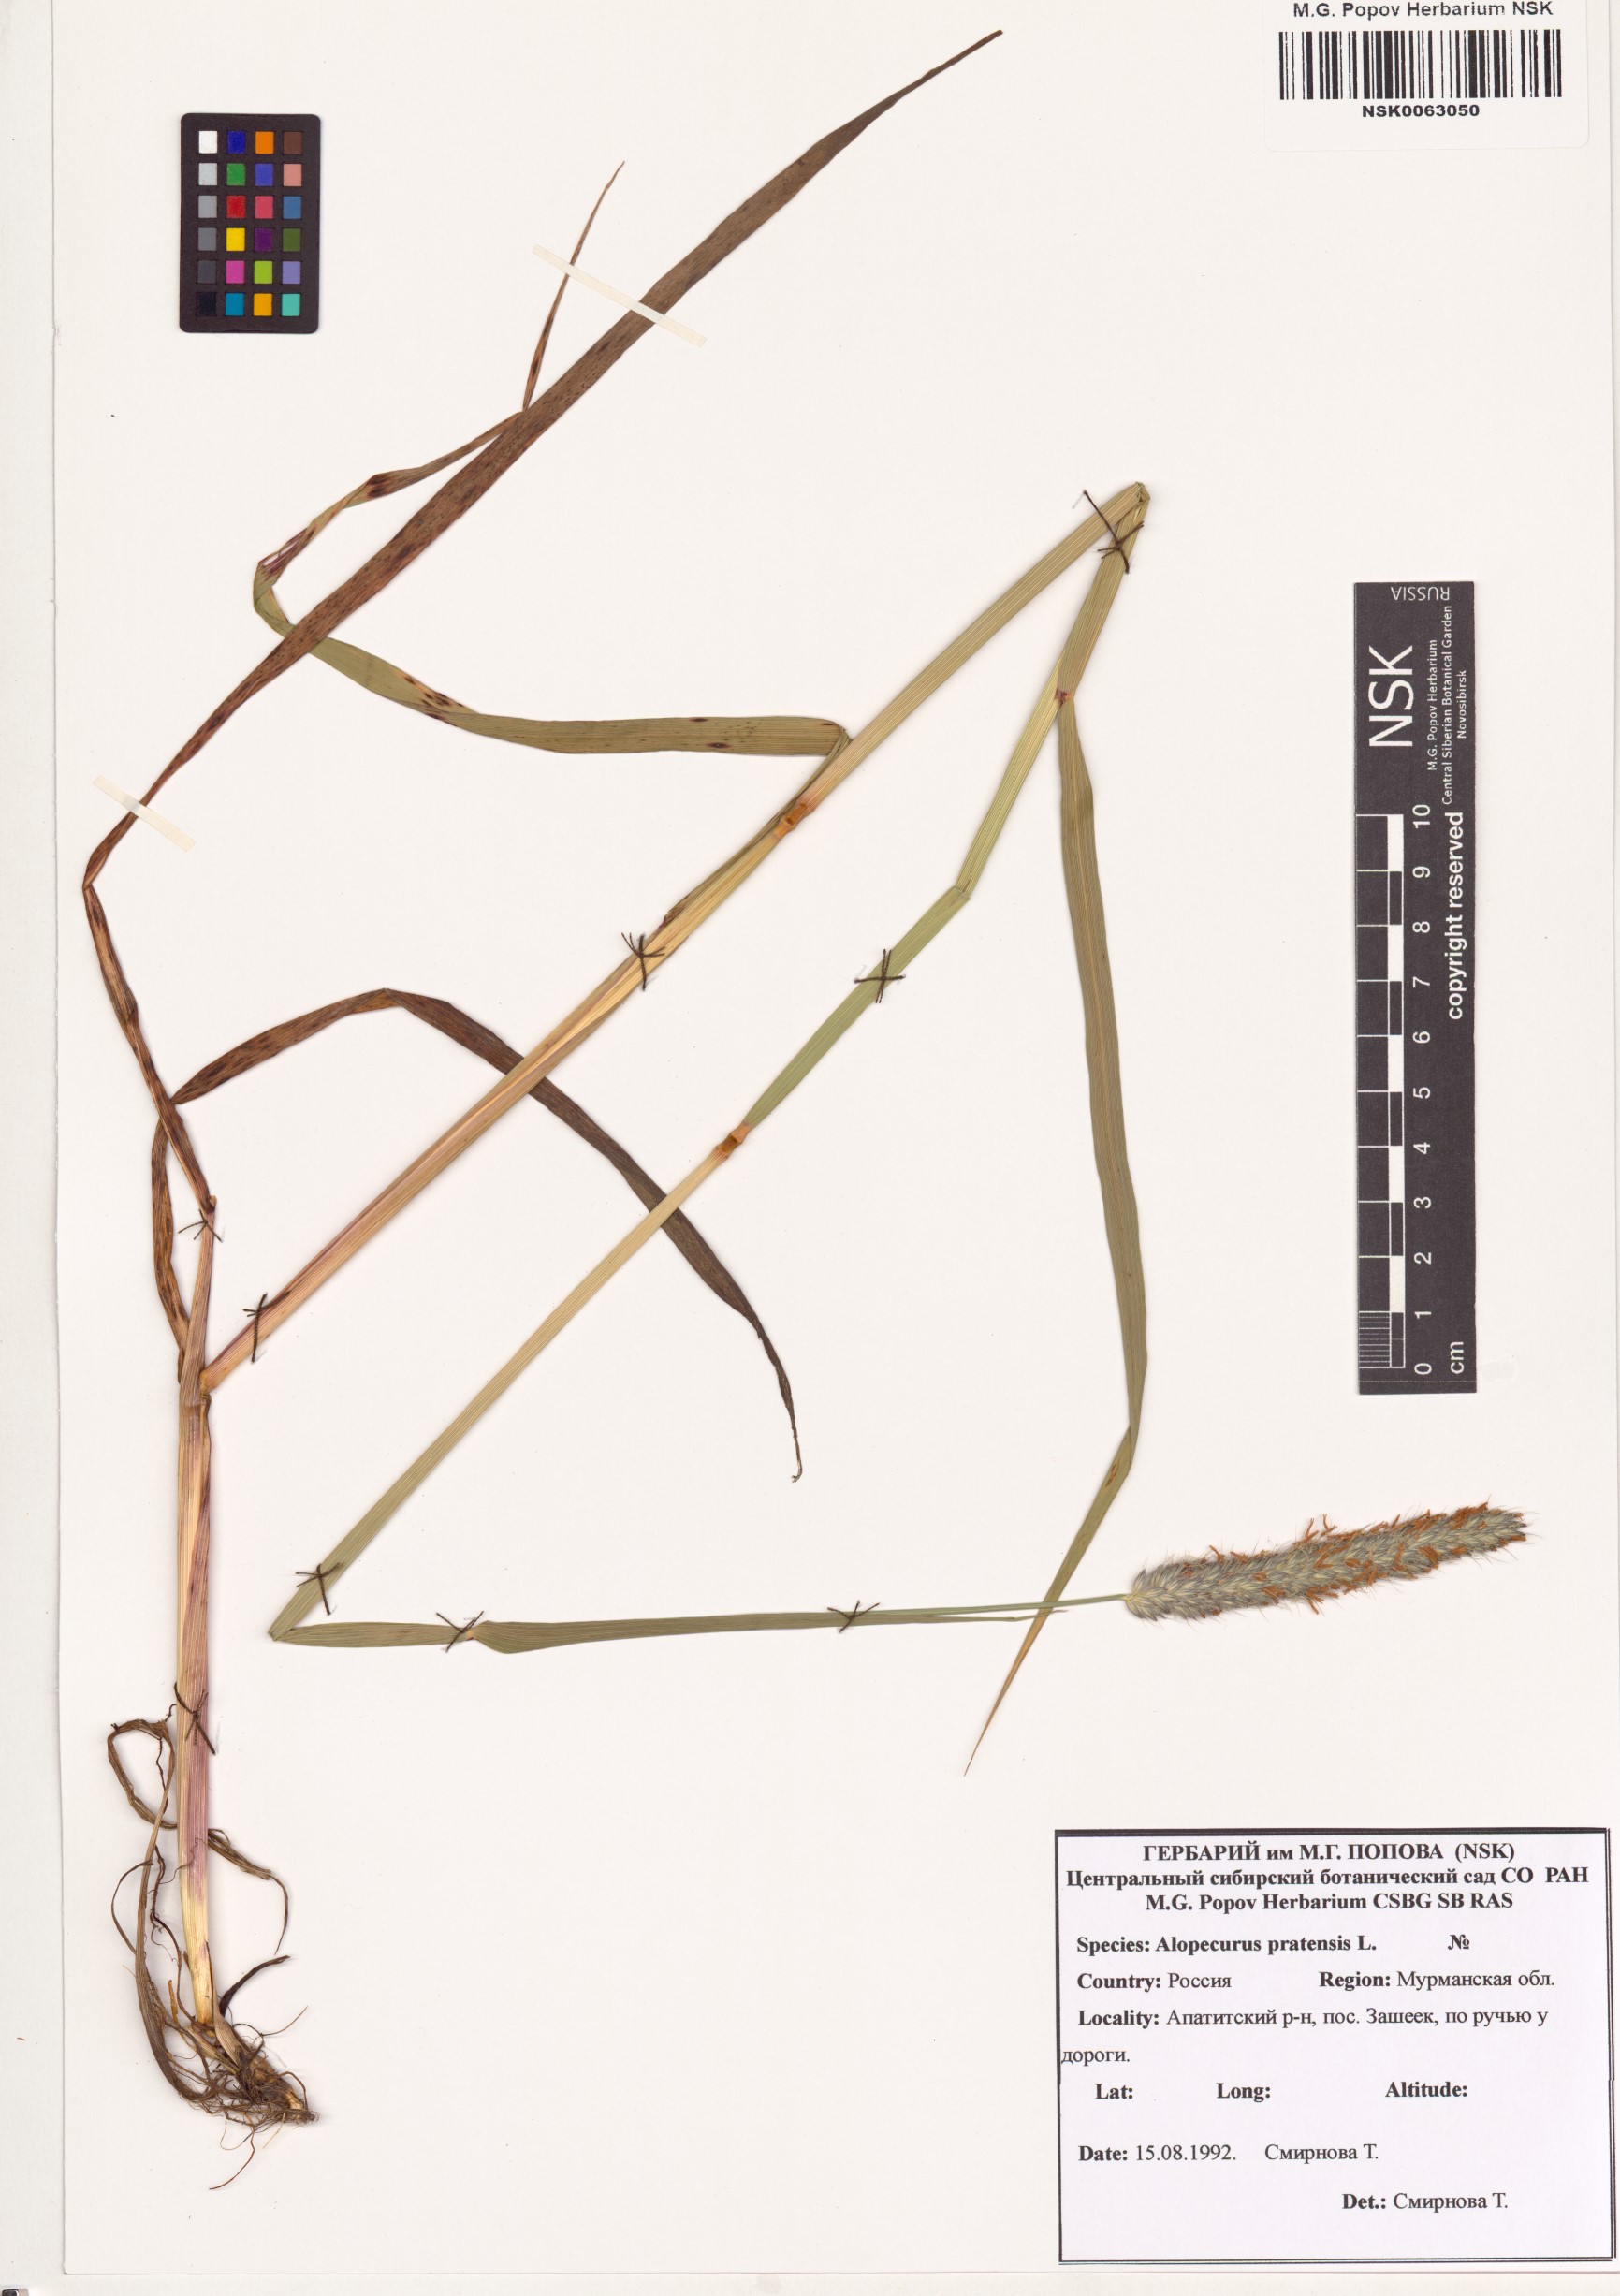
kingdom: Plantae
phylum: Tracheophyta
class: Liliopsida
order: Poales
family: Poaceae
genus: Alopecurus
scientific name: Alopecurus pratensis
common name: Meadow foxtail
